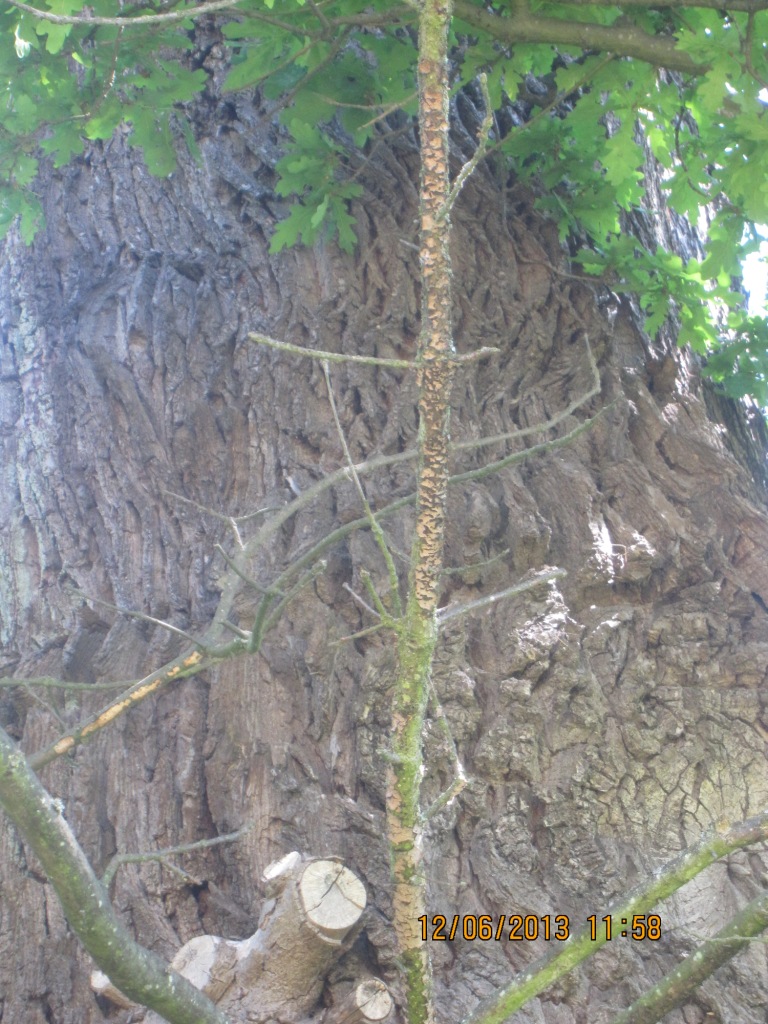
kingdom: Fungi
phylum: Basidiomycota
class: Agaricomycetes
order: Russulales
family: Peniophoraceae
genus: Peniophora
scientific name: Peniophora quercina
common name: ege-voksskind
